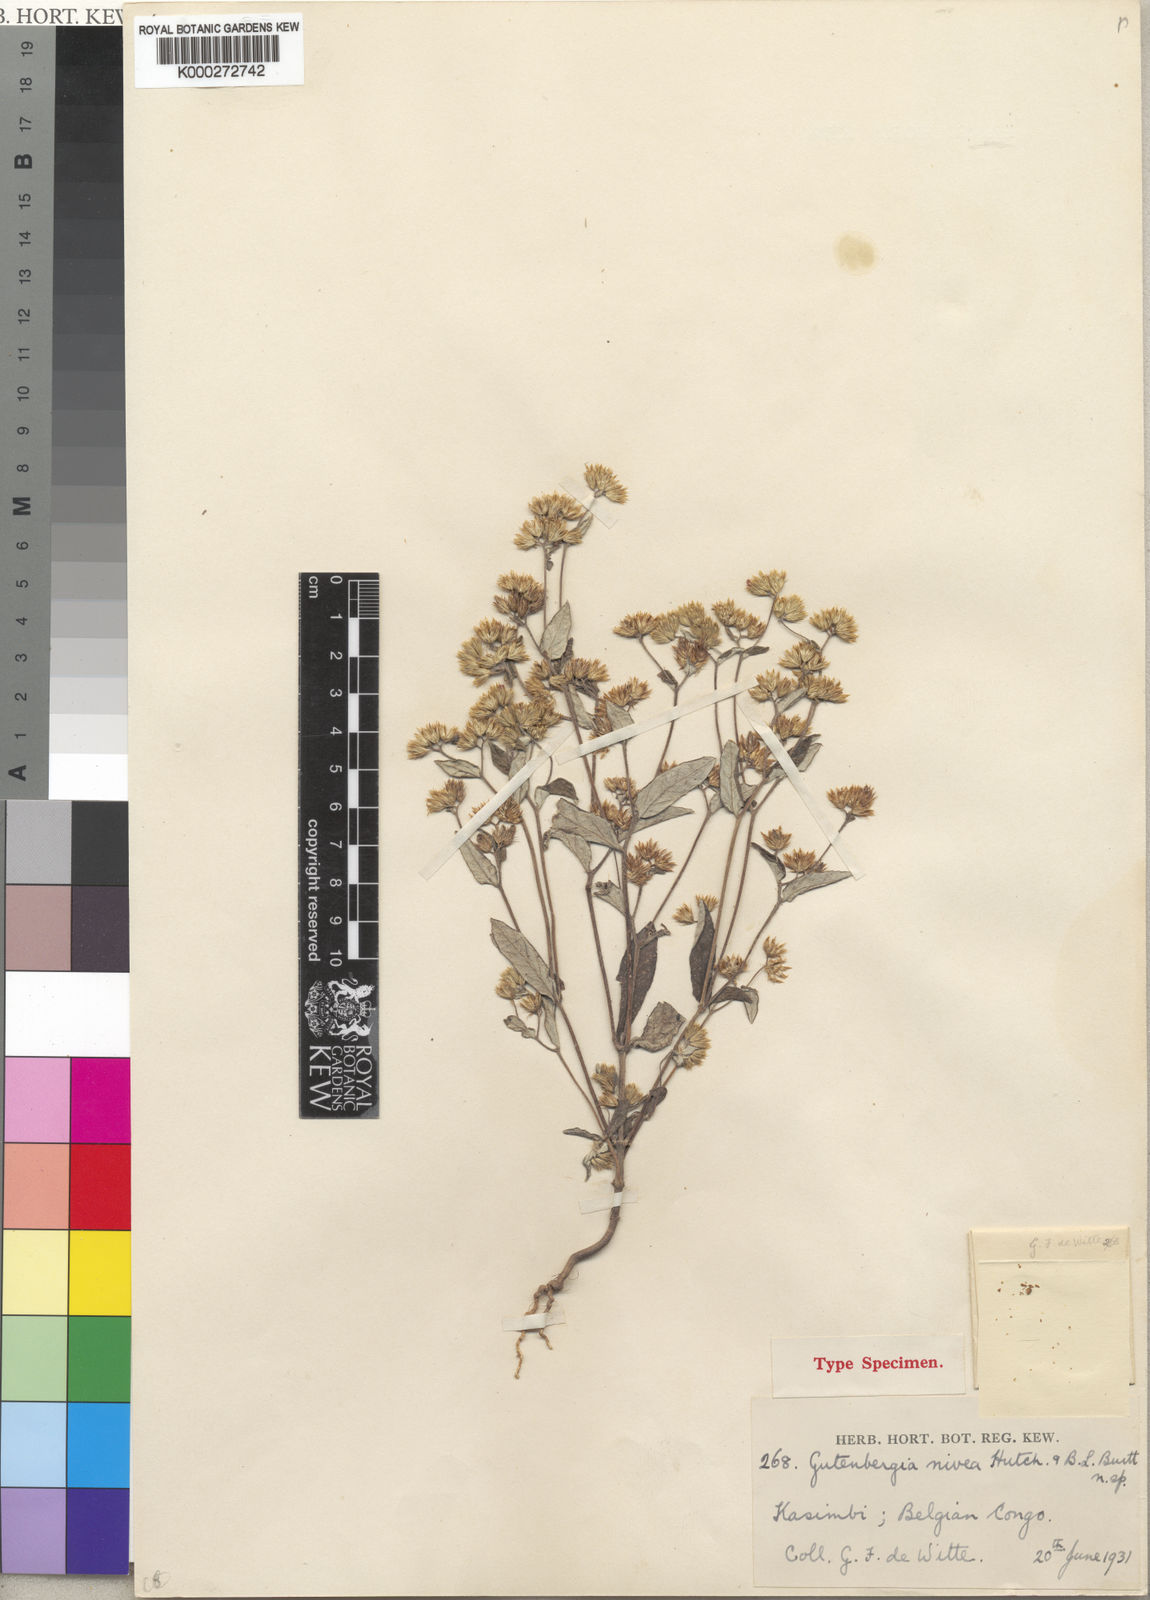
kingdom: Plantae
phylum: Tracheophyta
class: Magnoliopsida
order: Asterales
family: Asteraceae
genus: Gutenbergia
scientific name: Gutenbergia gossweileri
